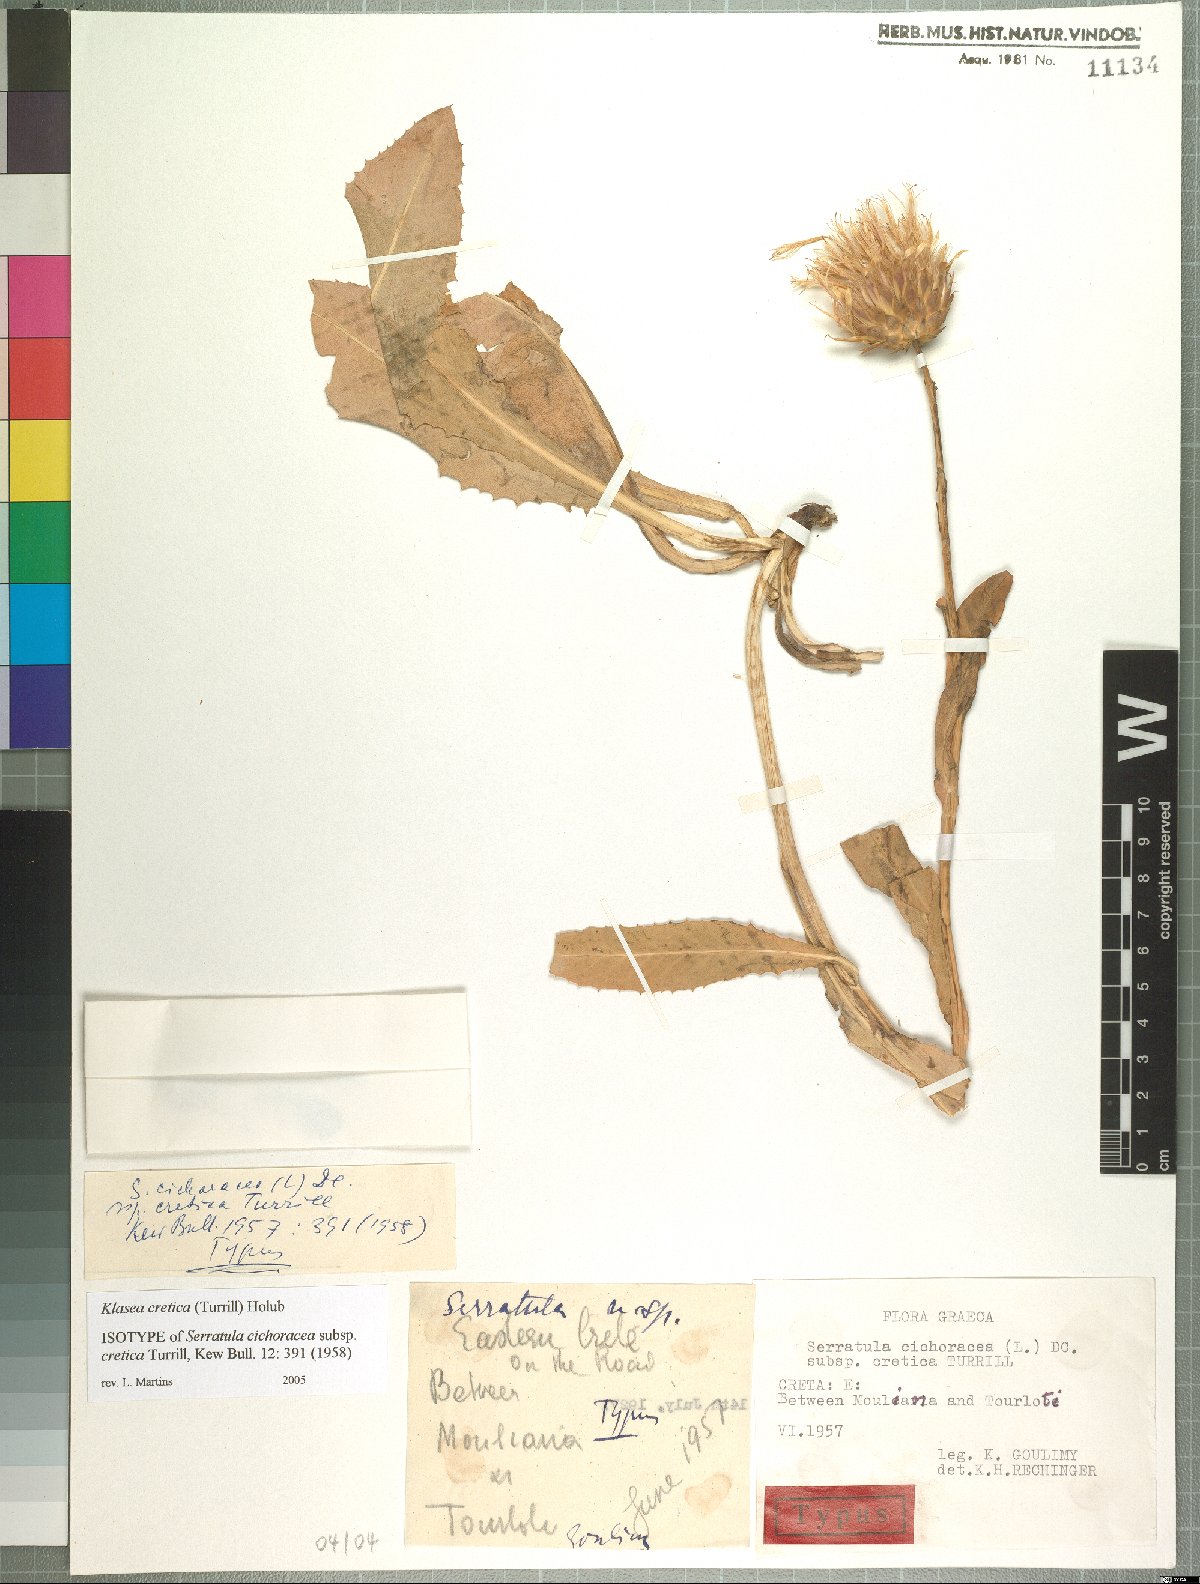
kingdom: Plantae
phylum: Tracheophyta
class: Magnoliopsida
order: Asterales
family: Asteraceae
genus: Klasea
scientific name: Klasea cretica
